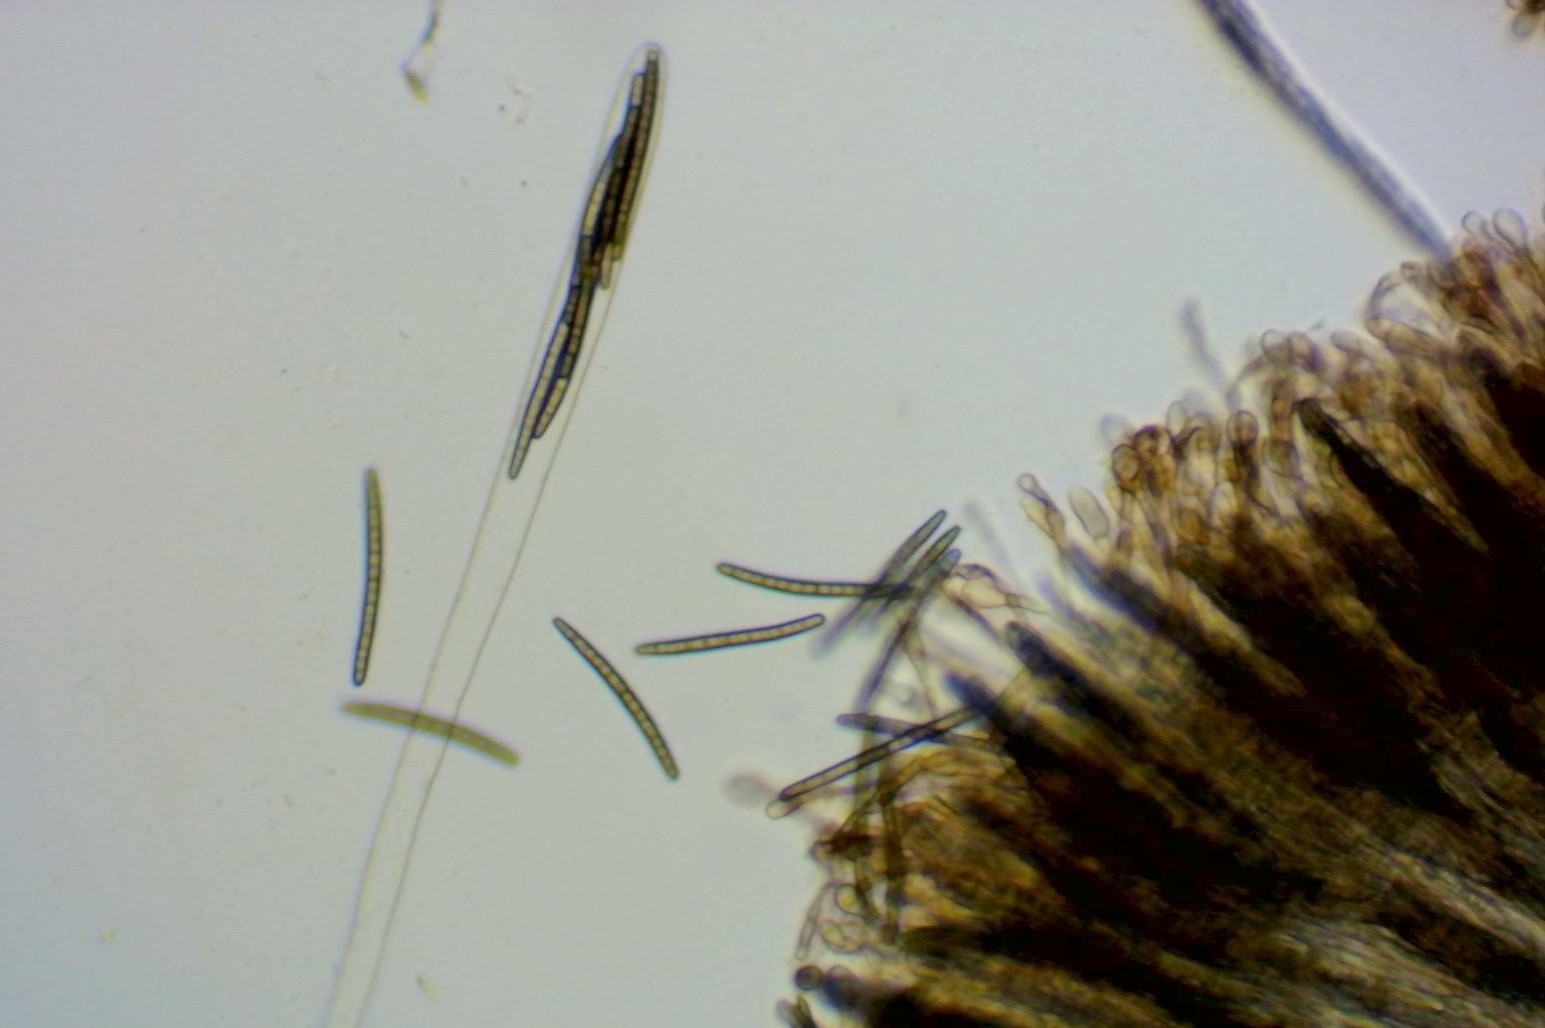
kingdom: Fungi
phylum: Ascomycota
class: Geoglossomycetes
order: Geoglossales
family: Geoglossaceae
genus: Glutinoglossum
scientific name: Glutinoglossum glutinosum
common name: slimet jordtunge
